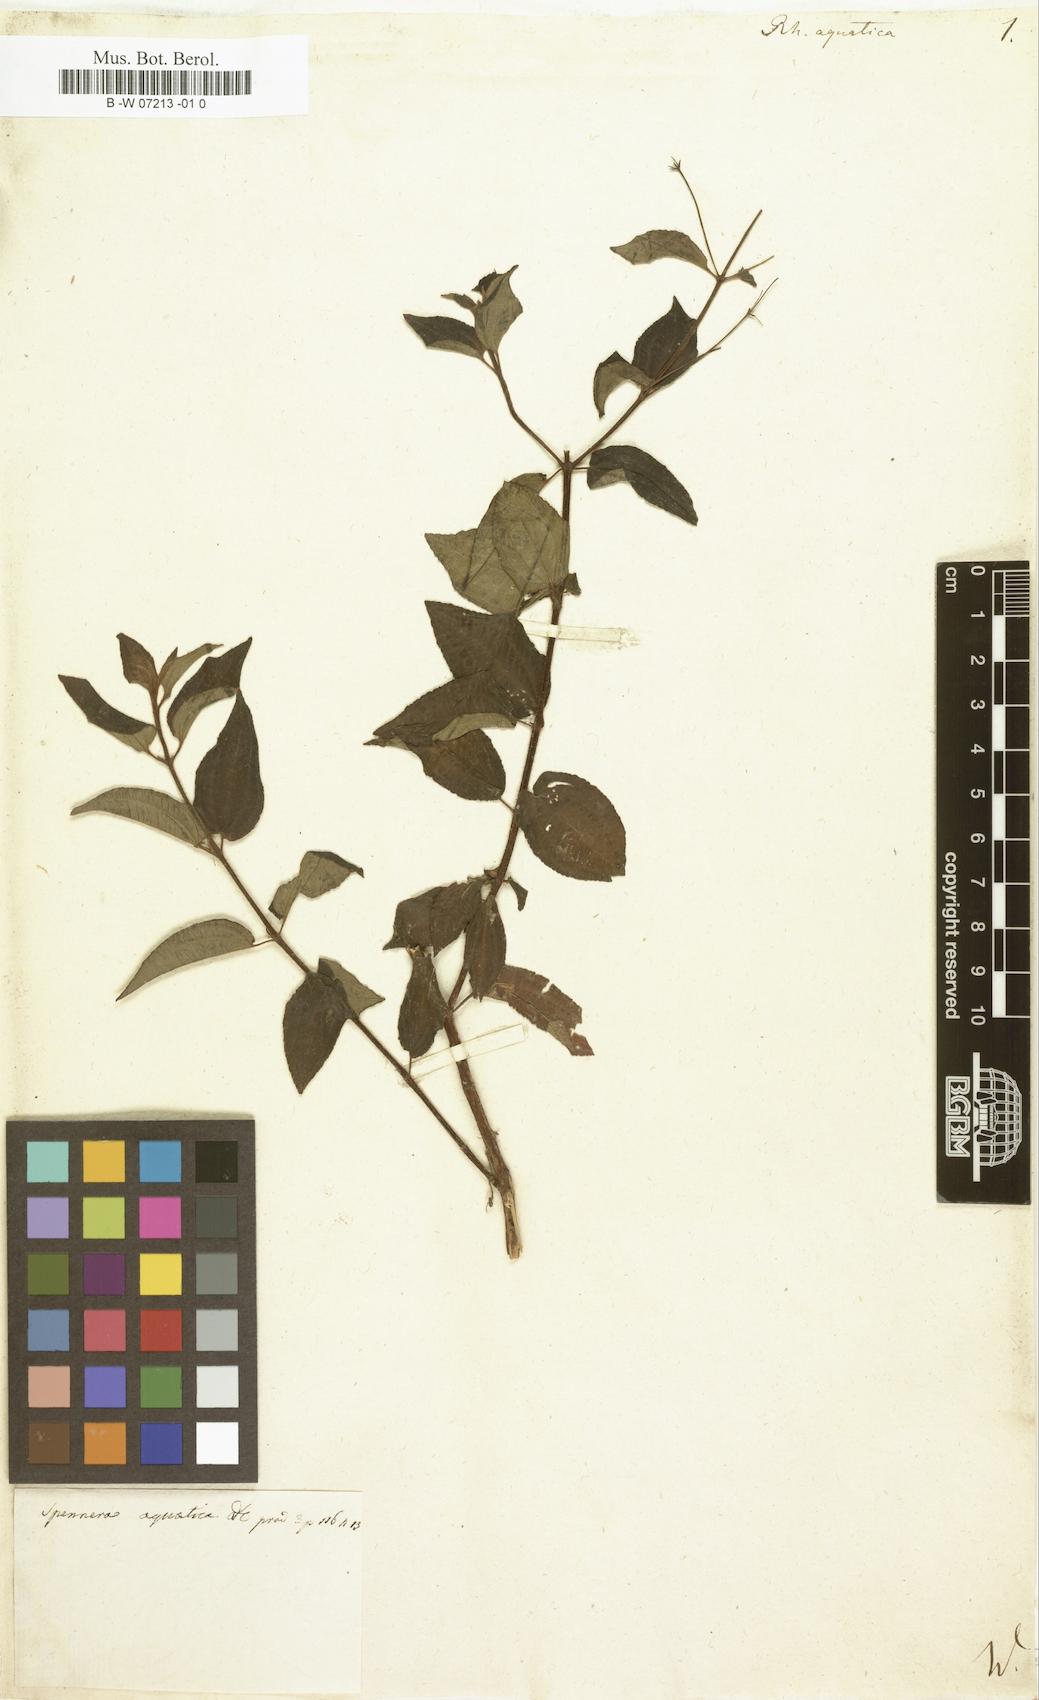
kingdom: Plantae
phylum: Tracheophyta
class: Magnoliopsida
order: Myrtales
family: Melastomataceae
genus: Nepsera
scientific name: Nepsera aquatica
